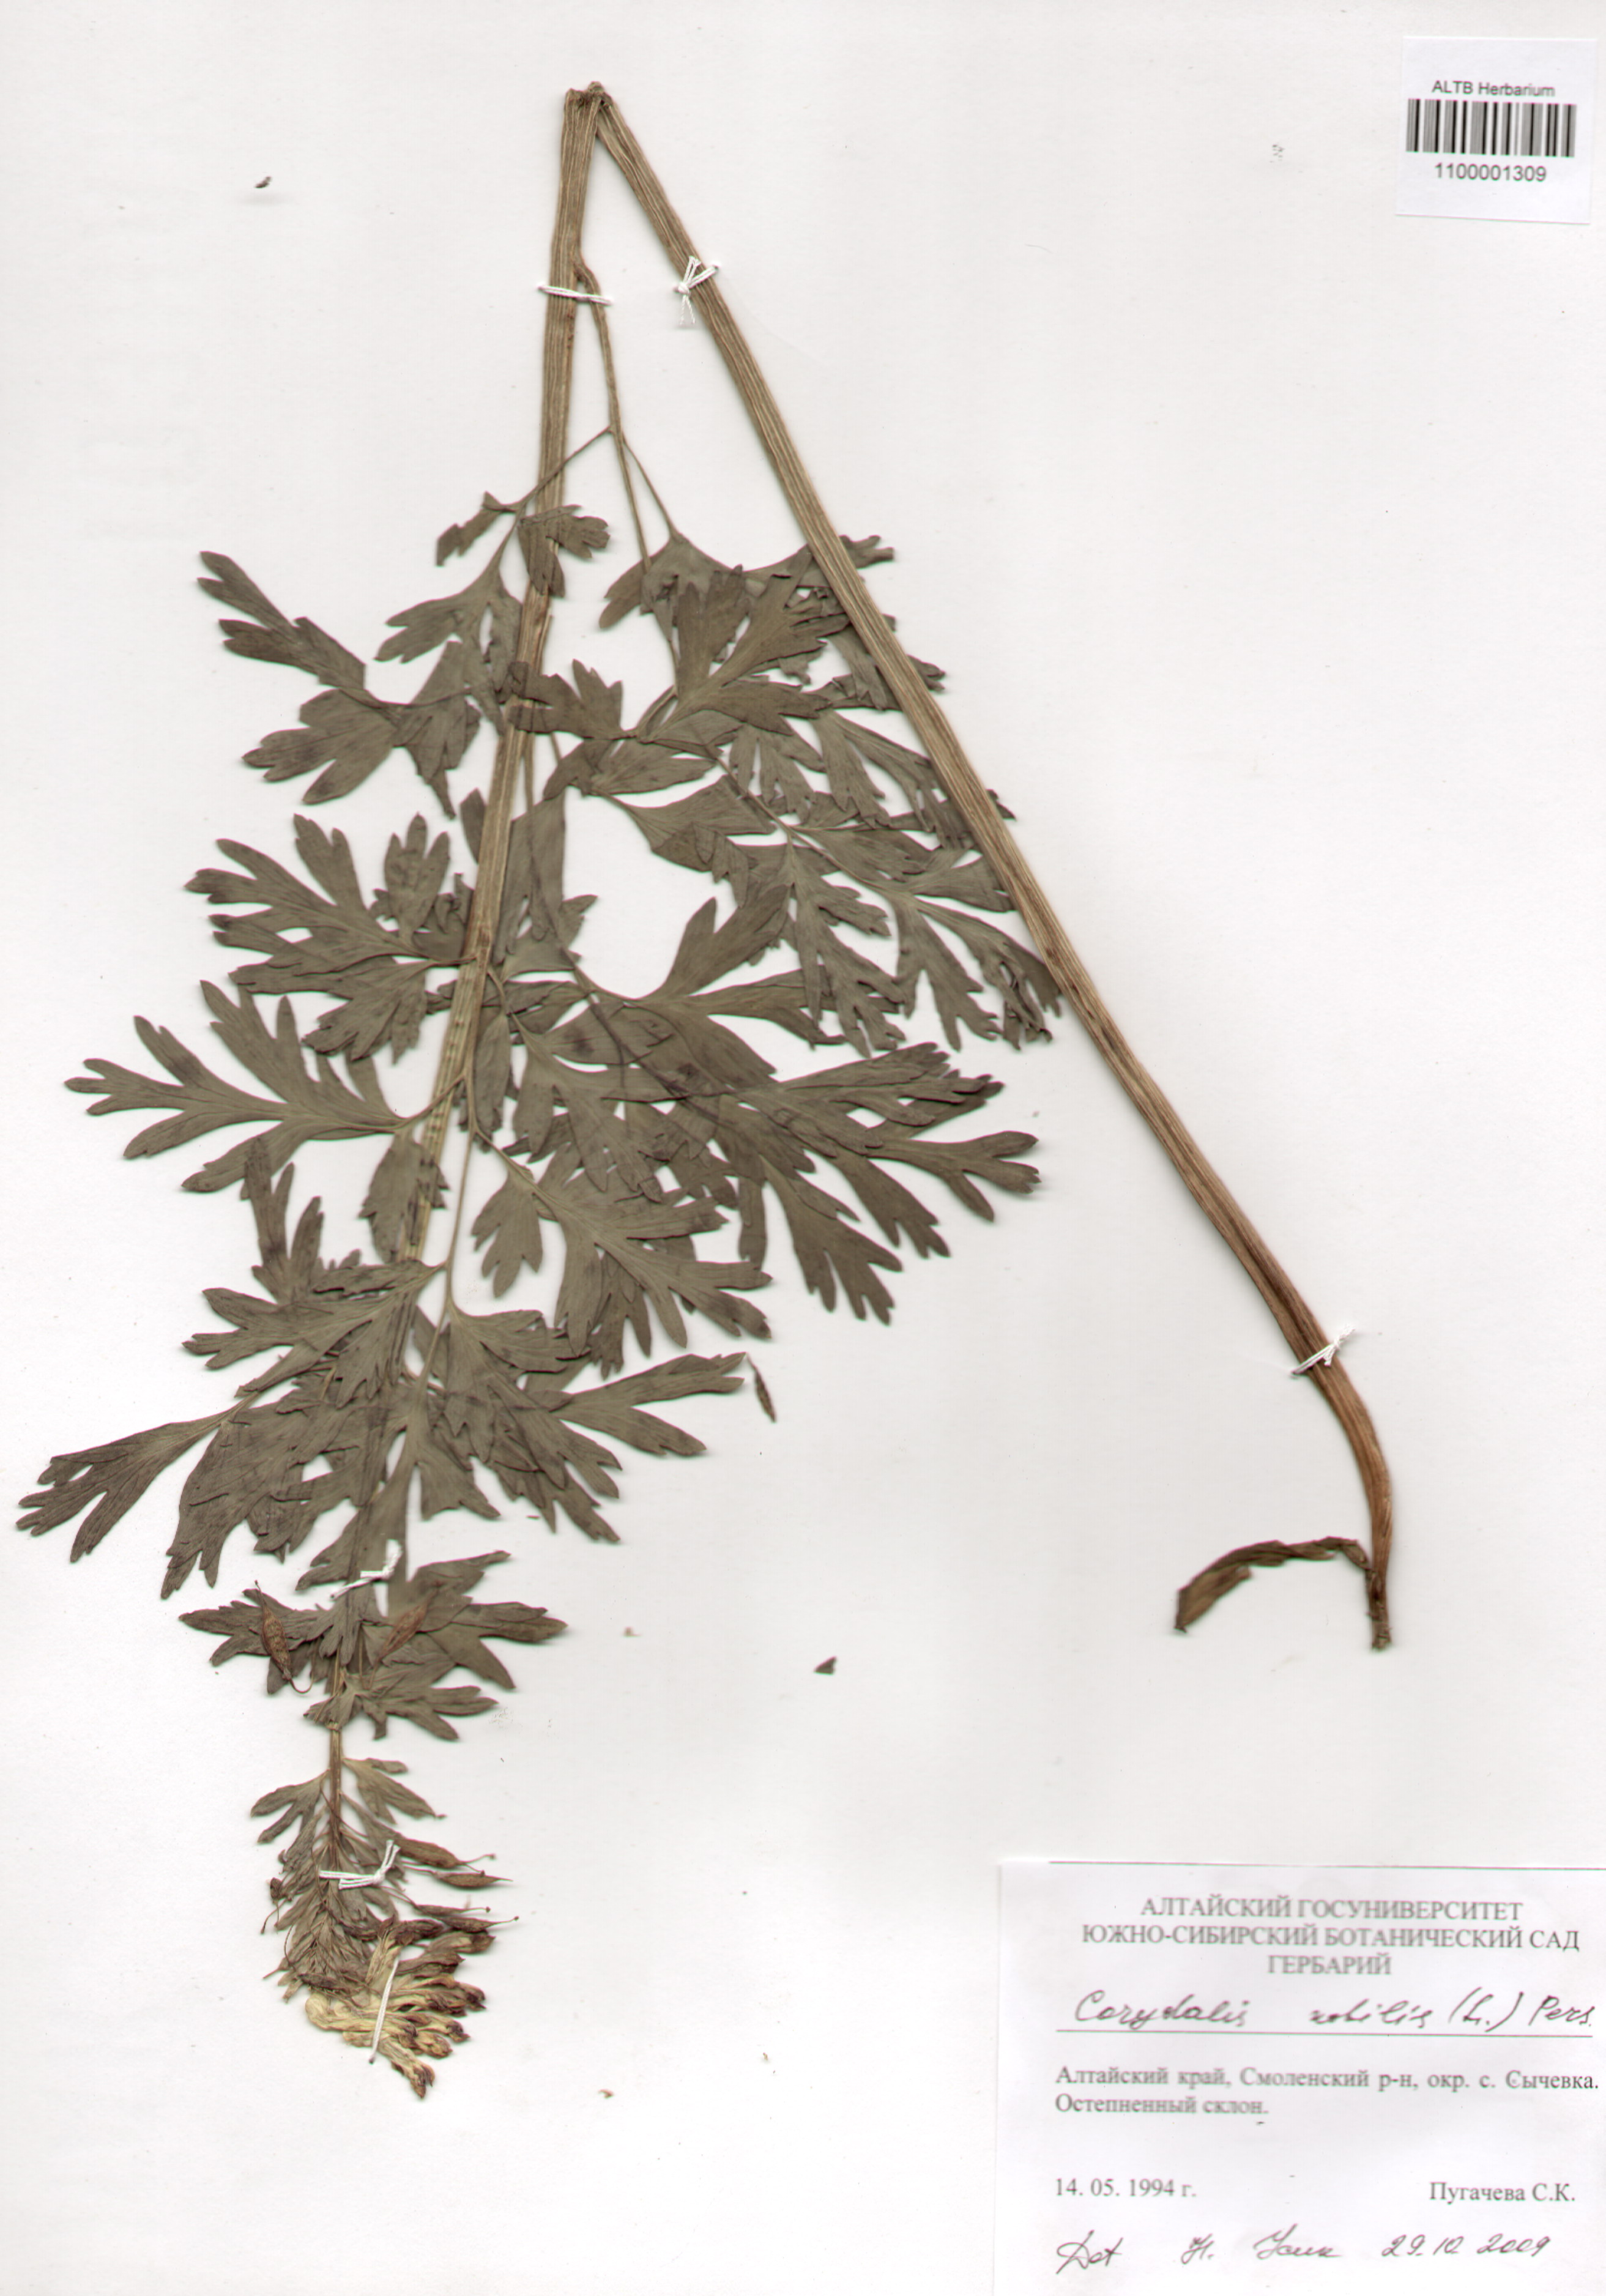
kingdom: Plantae
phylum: Tracheophyta
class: Magnoliopsida
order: Ranunculales
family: Papaveraceae
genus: Corydalis
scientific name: Corydalis nobilis
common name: Siberian corydalis
